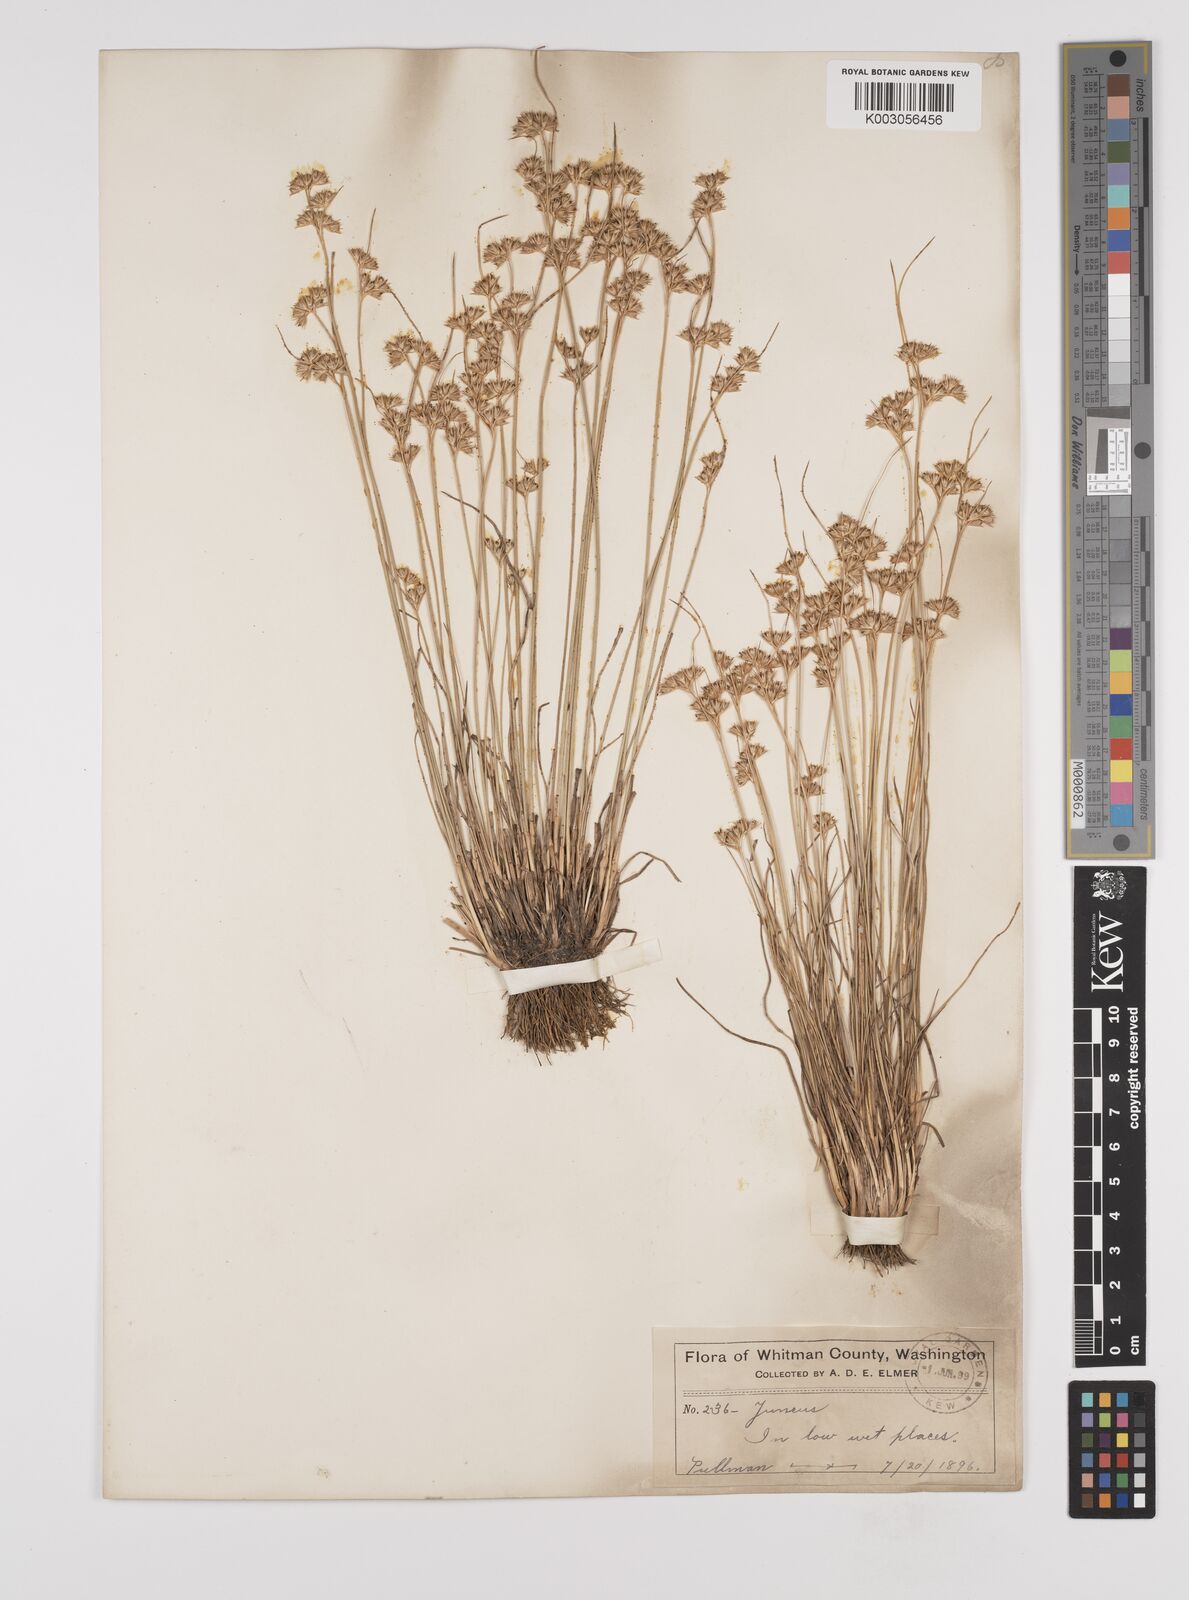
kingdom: Plantae
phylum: Tracheophyta
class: Liliopsida
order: Poales
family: Juncaceae
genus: Juncus
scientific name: Juncus dudleyi
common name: Dudley's rush
